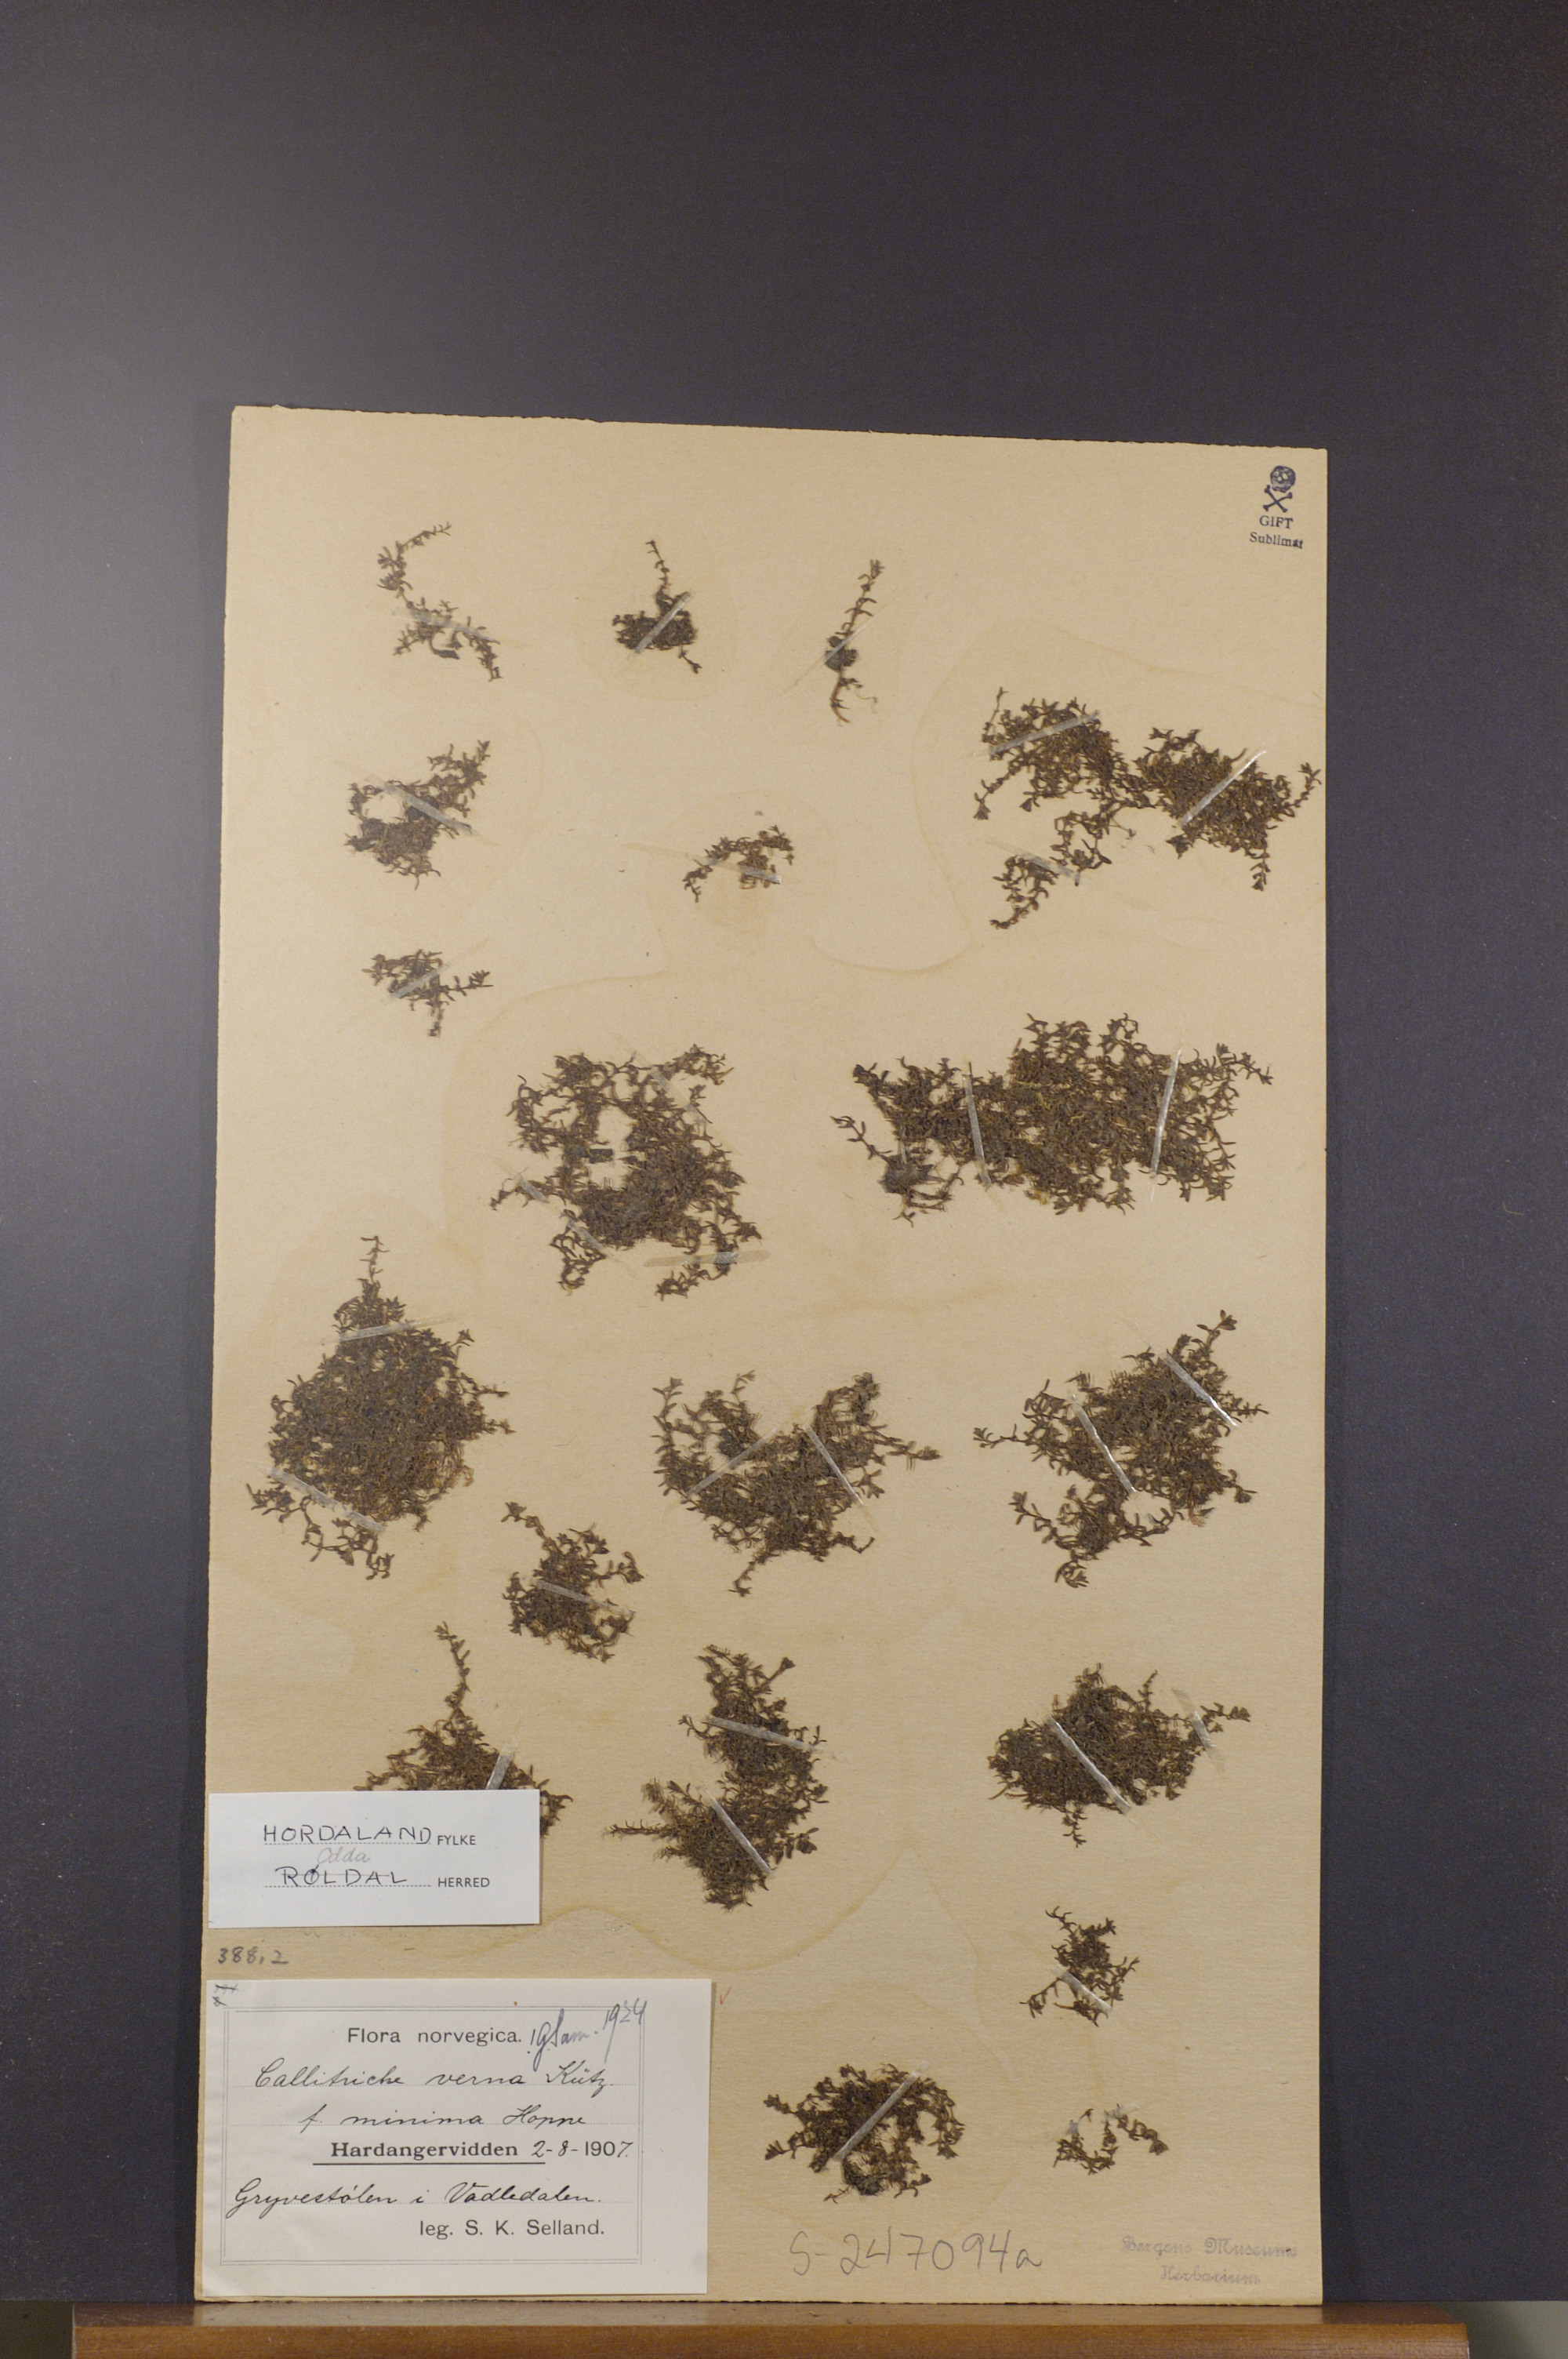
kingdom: Plantae
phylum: Tracheophyta
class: Magnoliopsida
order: Lamiales
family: Plantaginaceae
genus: Callitriche
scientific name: Callitriche palustris
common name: Spring water-starwort
